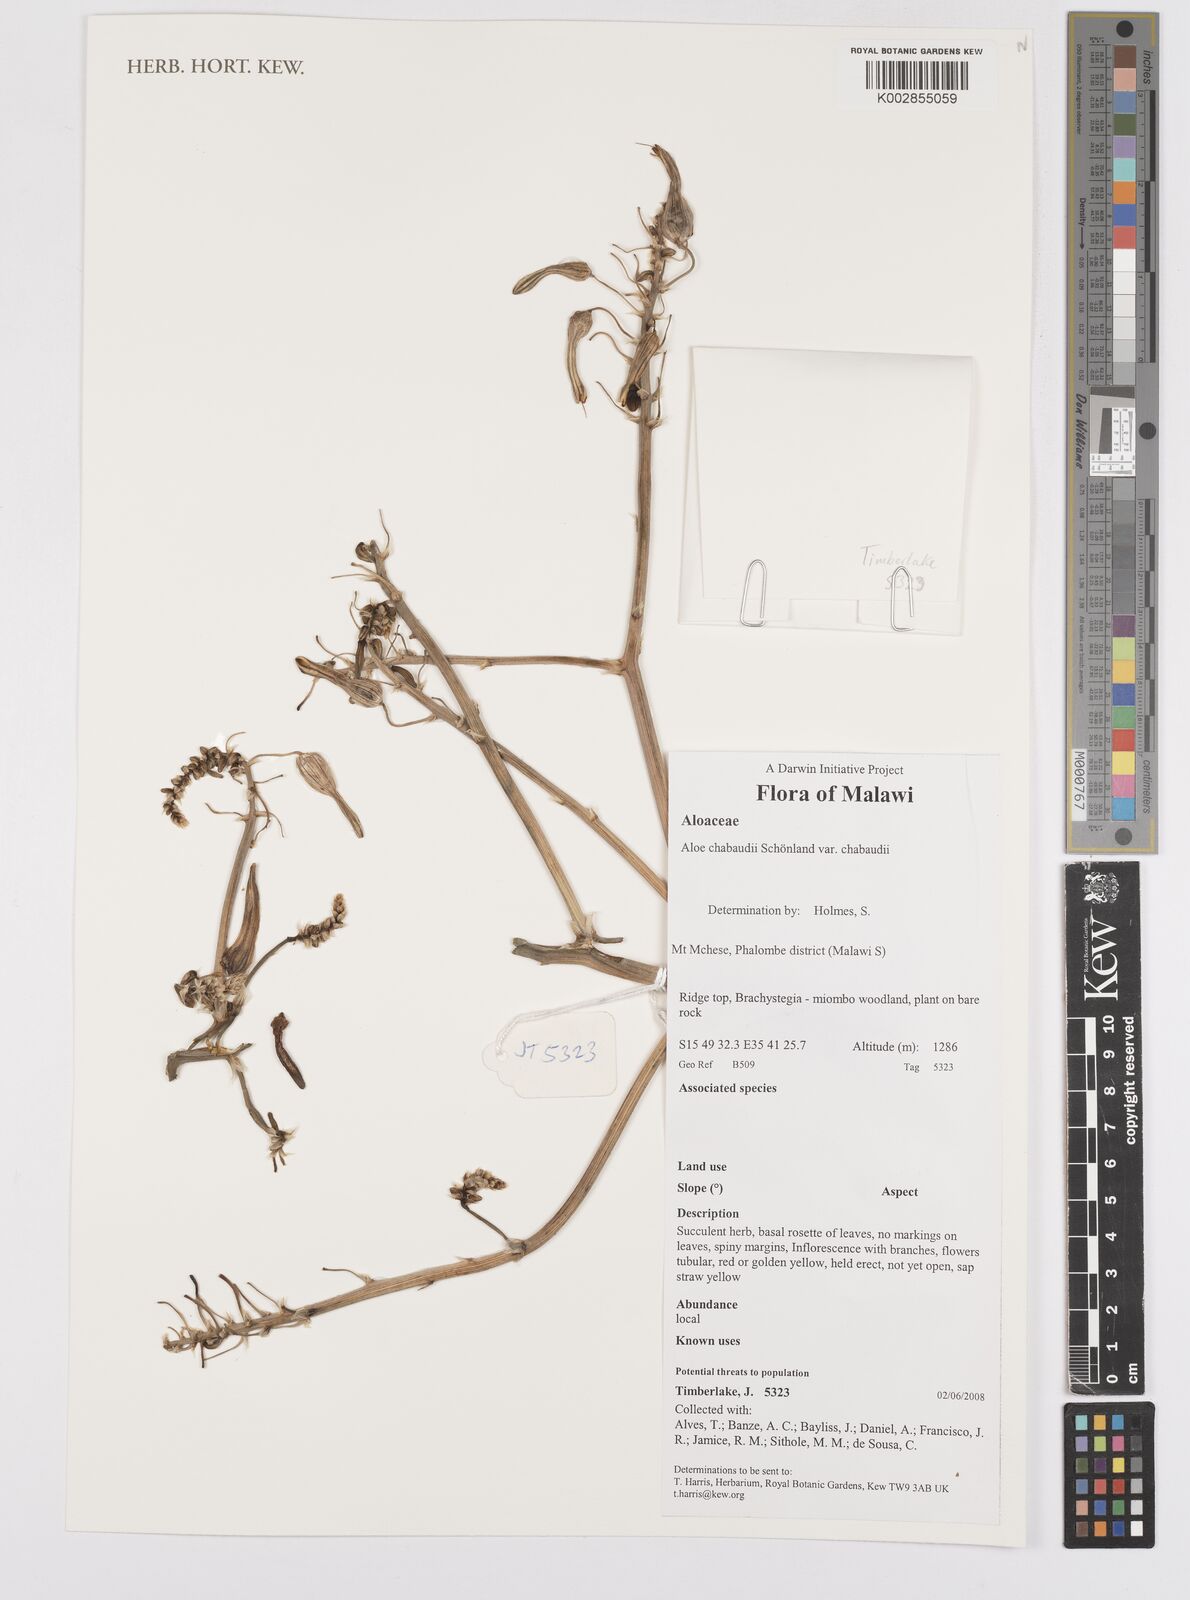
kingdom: Plantae
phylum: Tracheophyta
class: Liliopsida
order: Asparagales
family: Asphodelaceae
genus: Aloe
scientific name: Aloe chabaudii
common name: Chabaud's aloe
